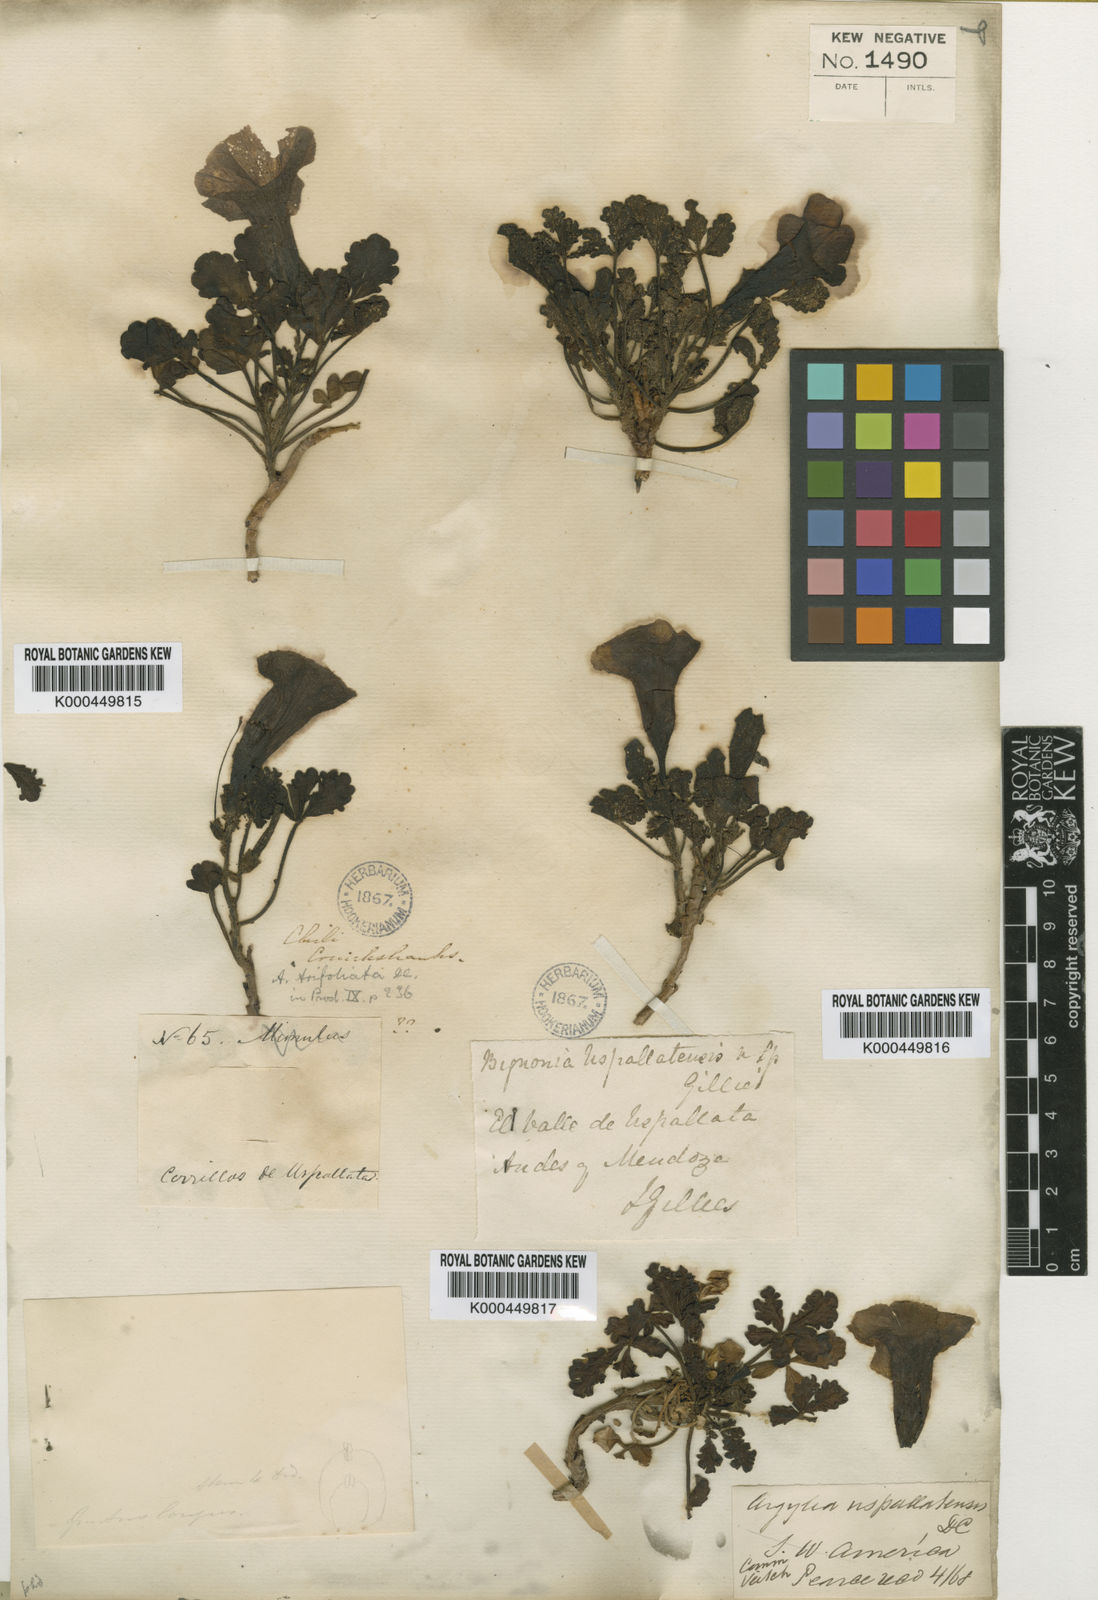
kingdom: Plantae
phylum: Tracheophyta
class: Magnoliopsida
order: Lamiales
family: Bignoniaceae
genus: Argylia
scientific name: Argylia uspallatensis
